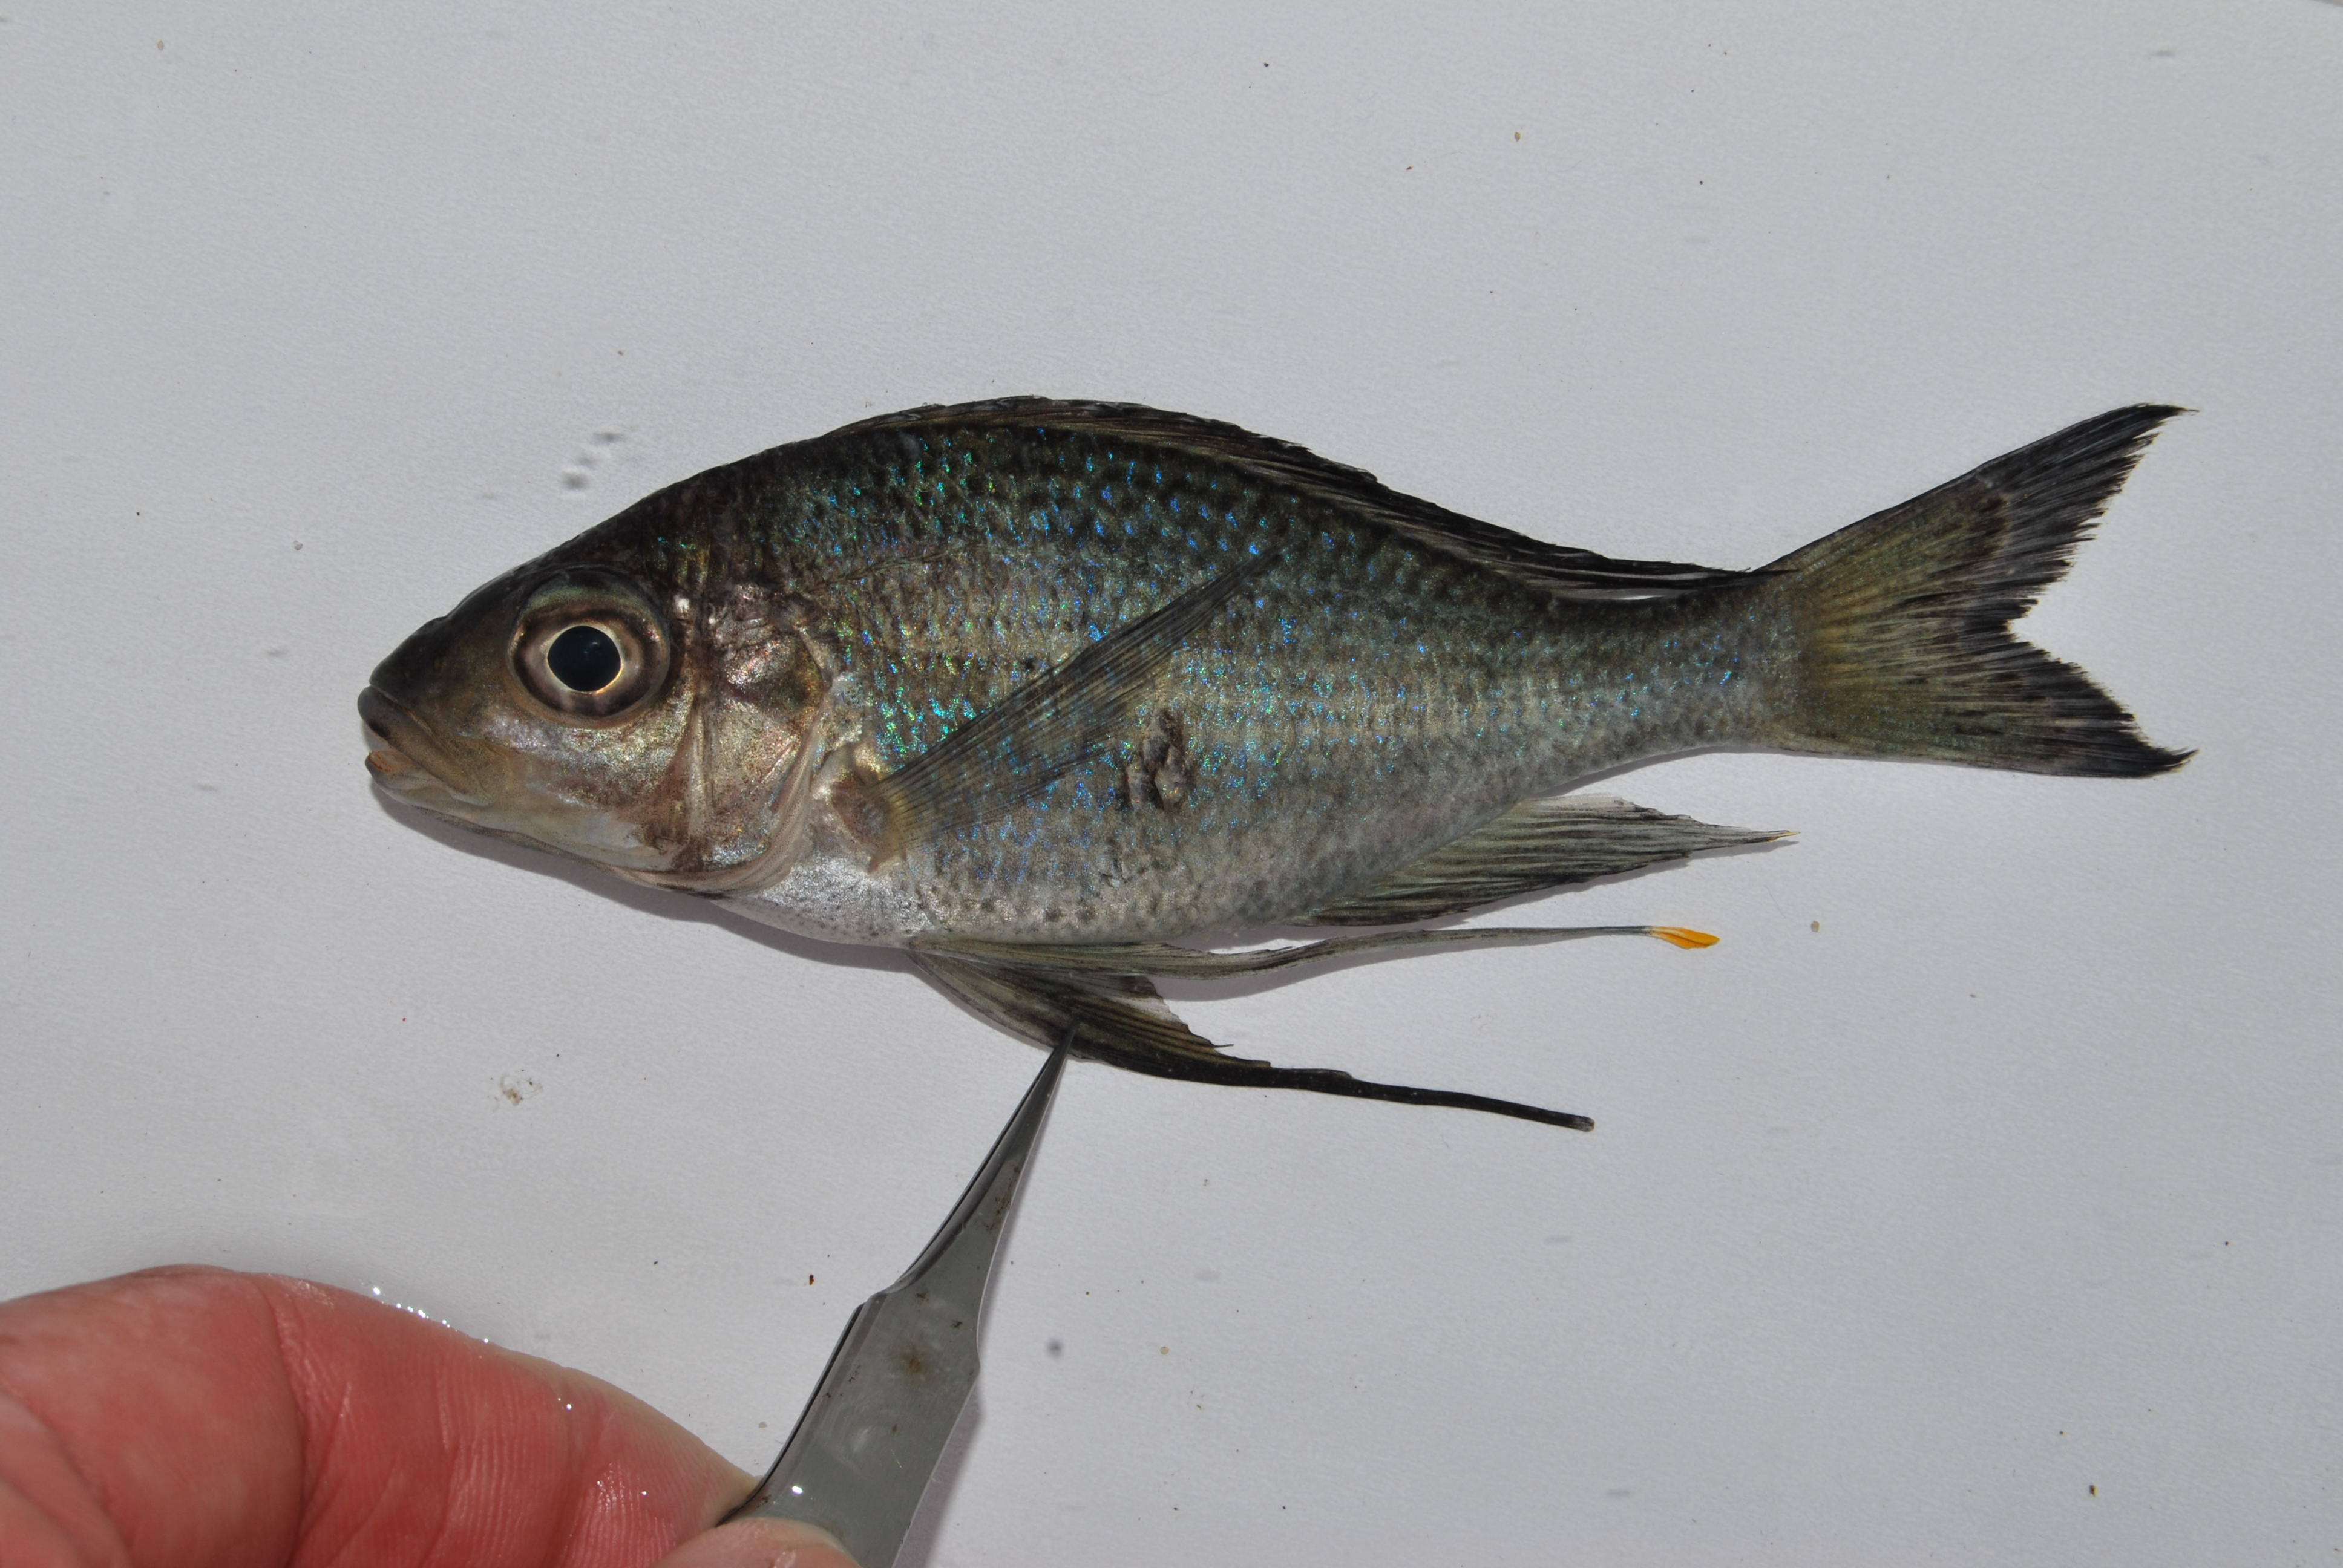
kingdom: Animalia
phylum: Chordata
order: Perciformes
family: Cichlidae
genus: Ophthalmotilapia
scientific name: Ophthalmotilapia ventralis
